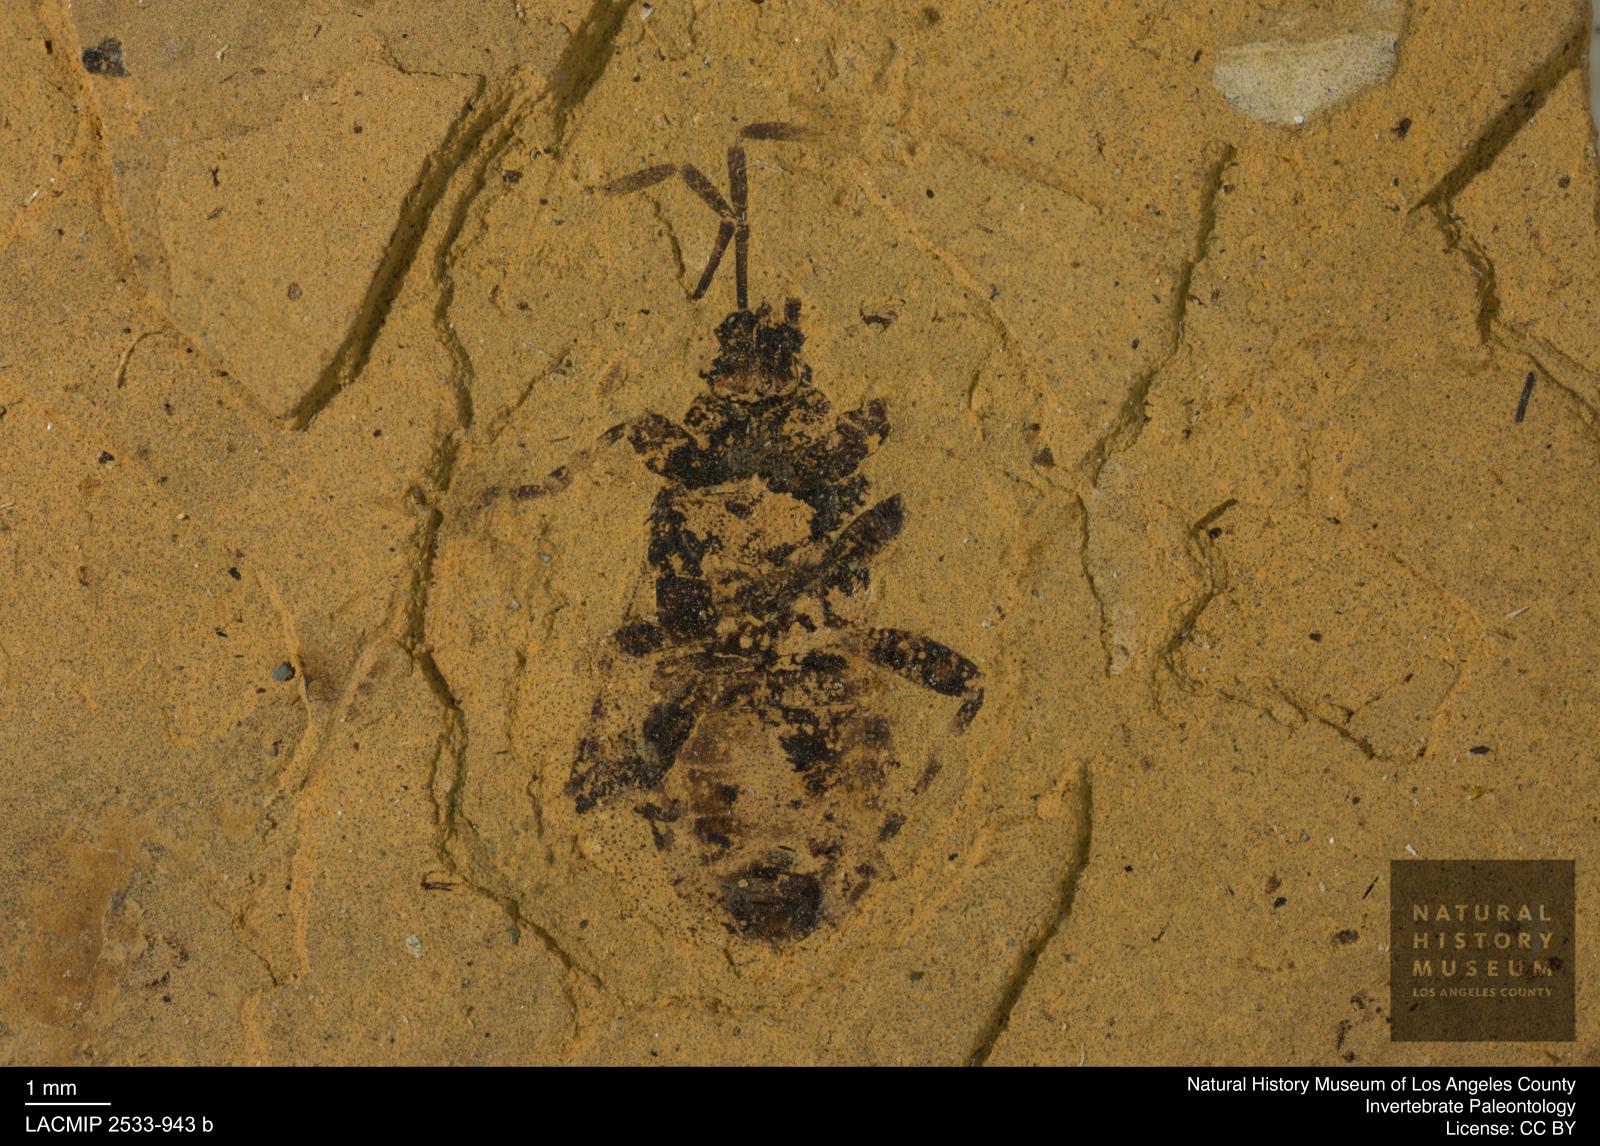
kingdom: Animalia
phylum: Arthropoda
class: Insecta
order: Hemiptera
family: Pyrrhocoridae
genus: Pyrrhocoris
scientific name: Pyrrhocoris
